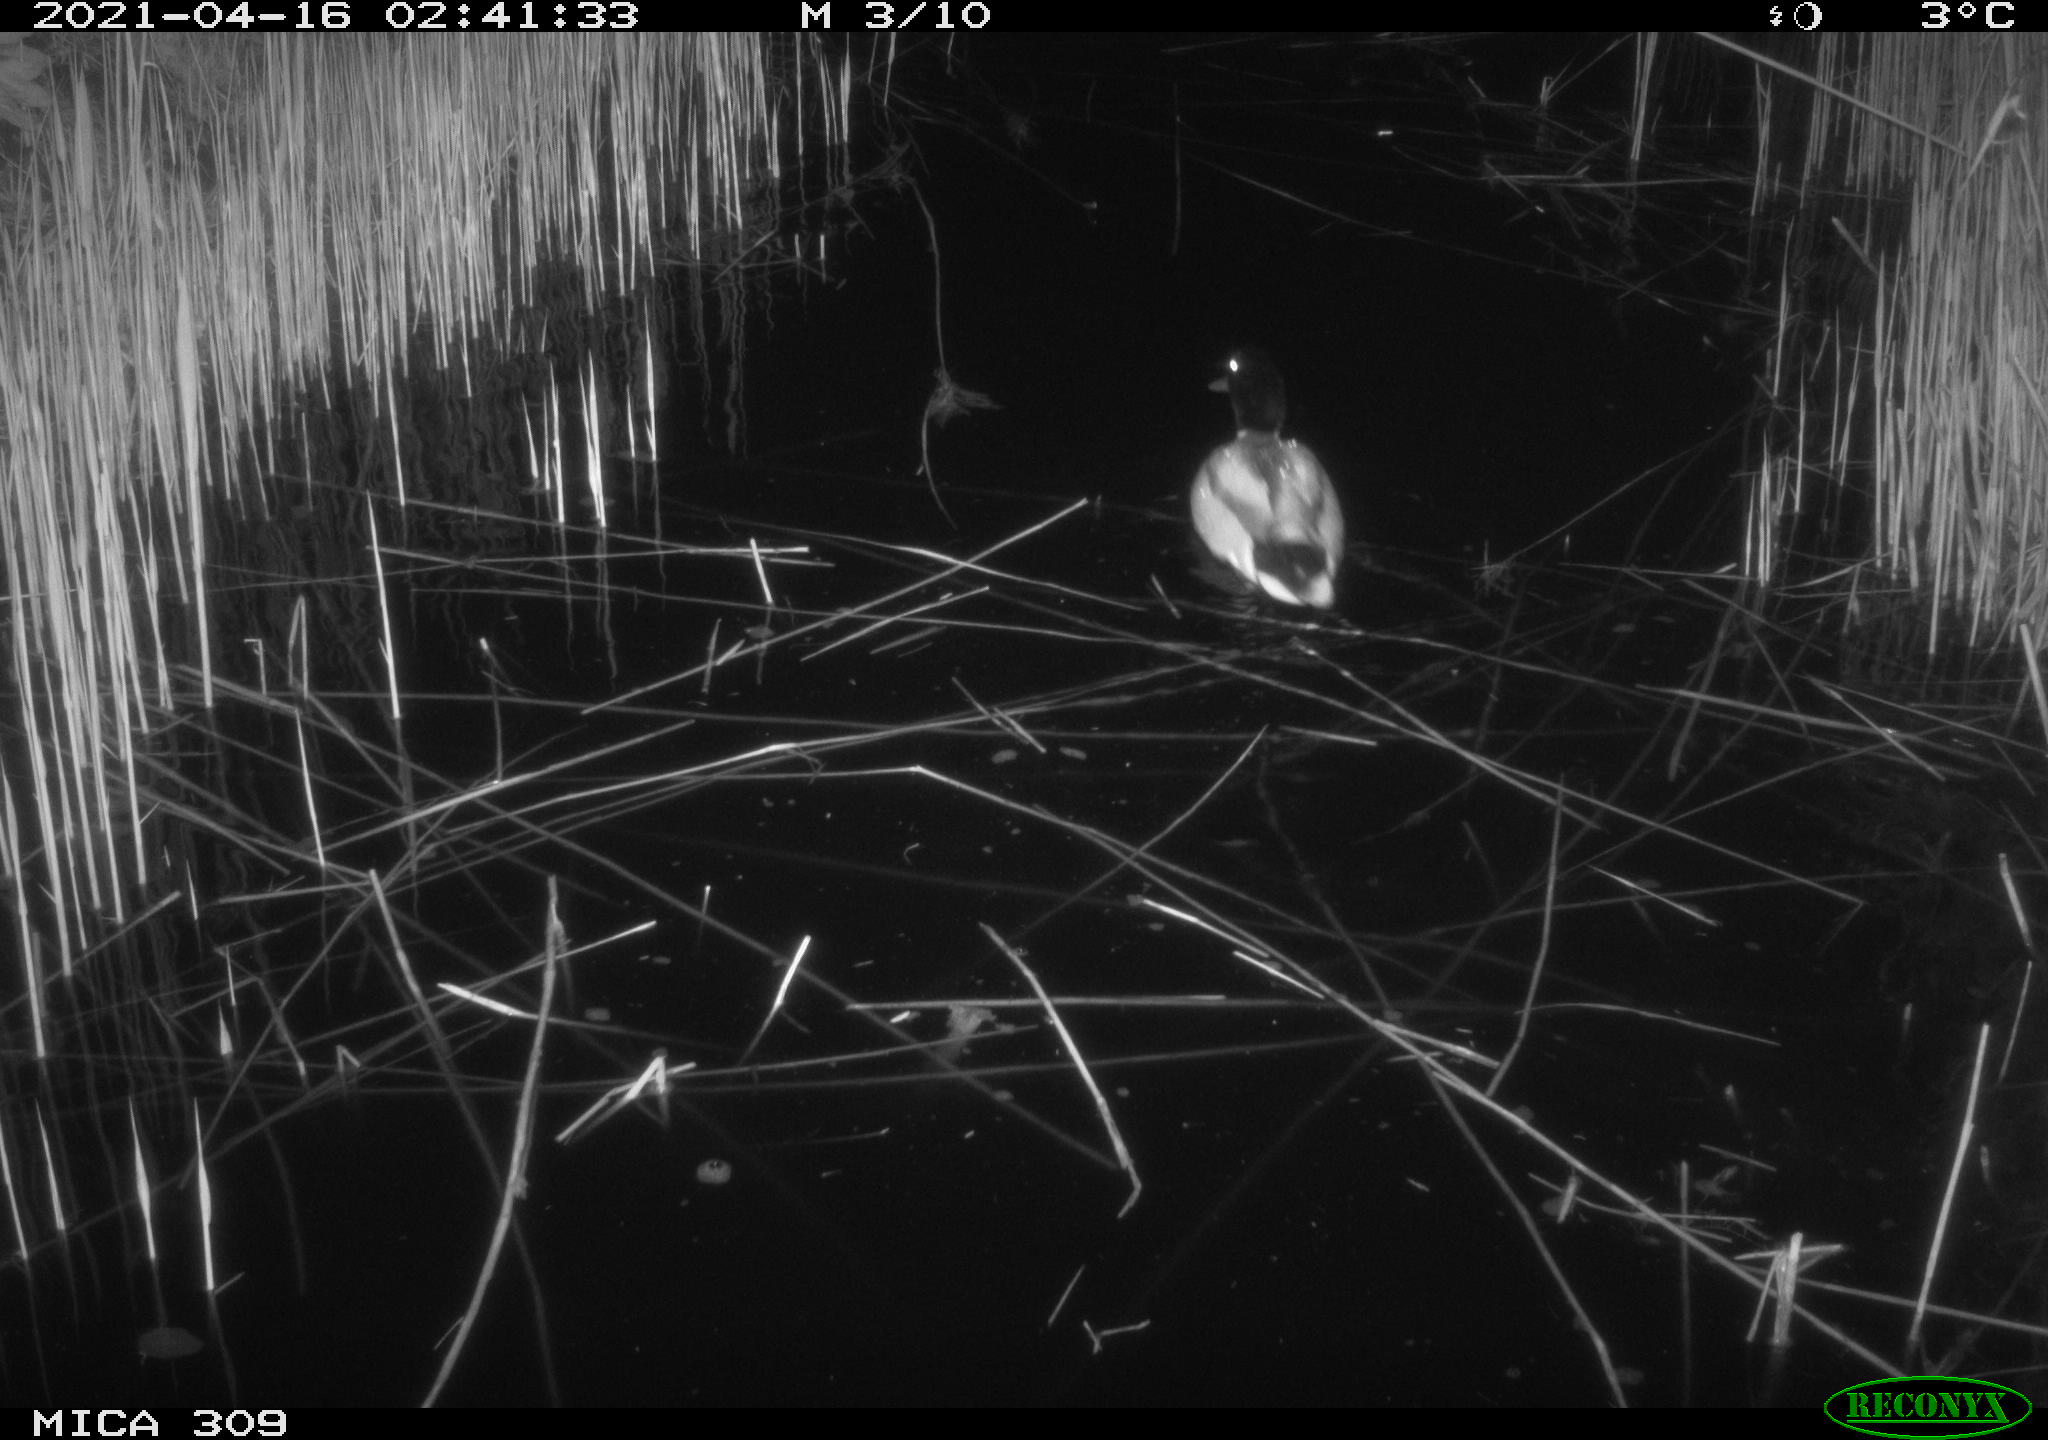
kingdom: Animalia
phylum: Chordata
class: Aves
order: Anseriformes
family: Anatidae
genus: Anas
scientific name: Anas platyrhynchos
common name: Mallard
